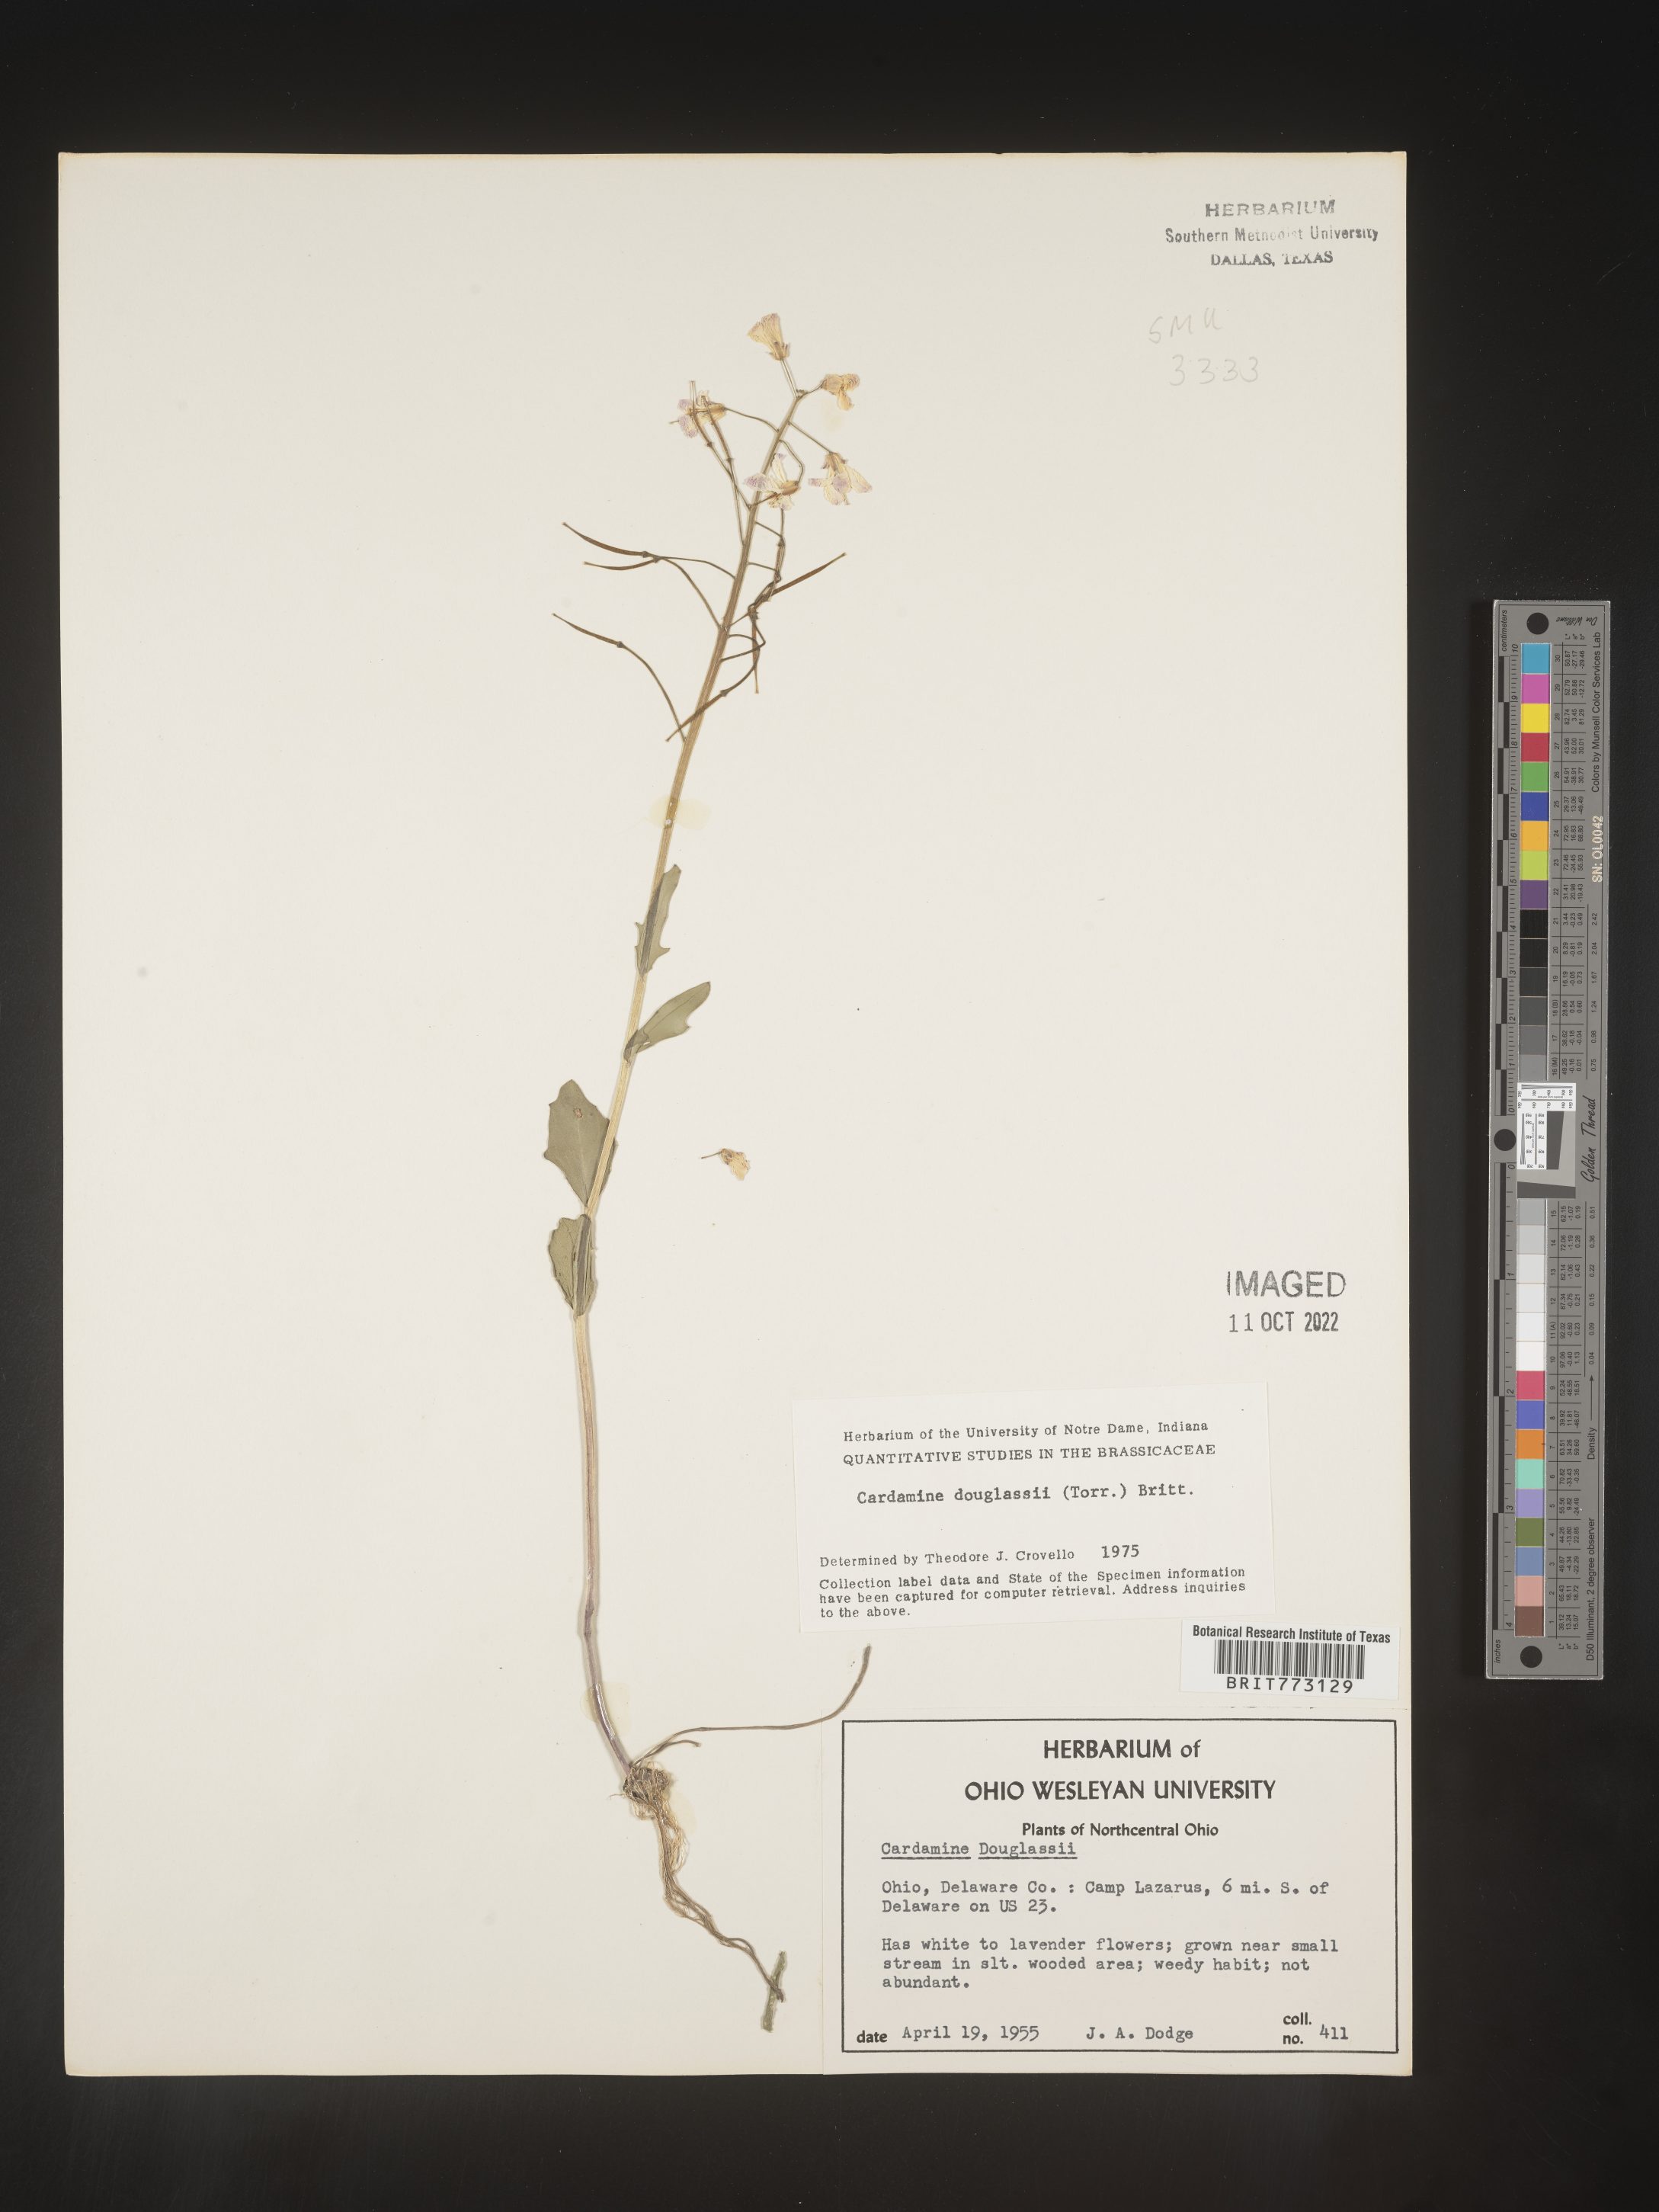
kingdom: Plantae
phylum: Tracheophyta
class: Magnoliopsida
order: Brassicales
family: Brassicaceae
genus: Cardamine
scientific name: Cardamine
